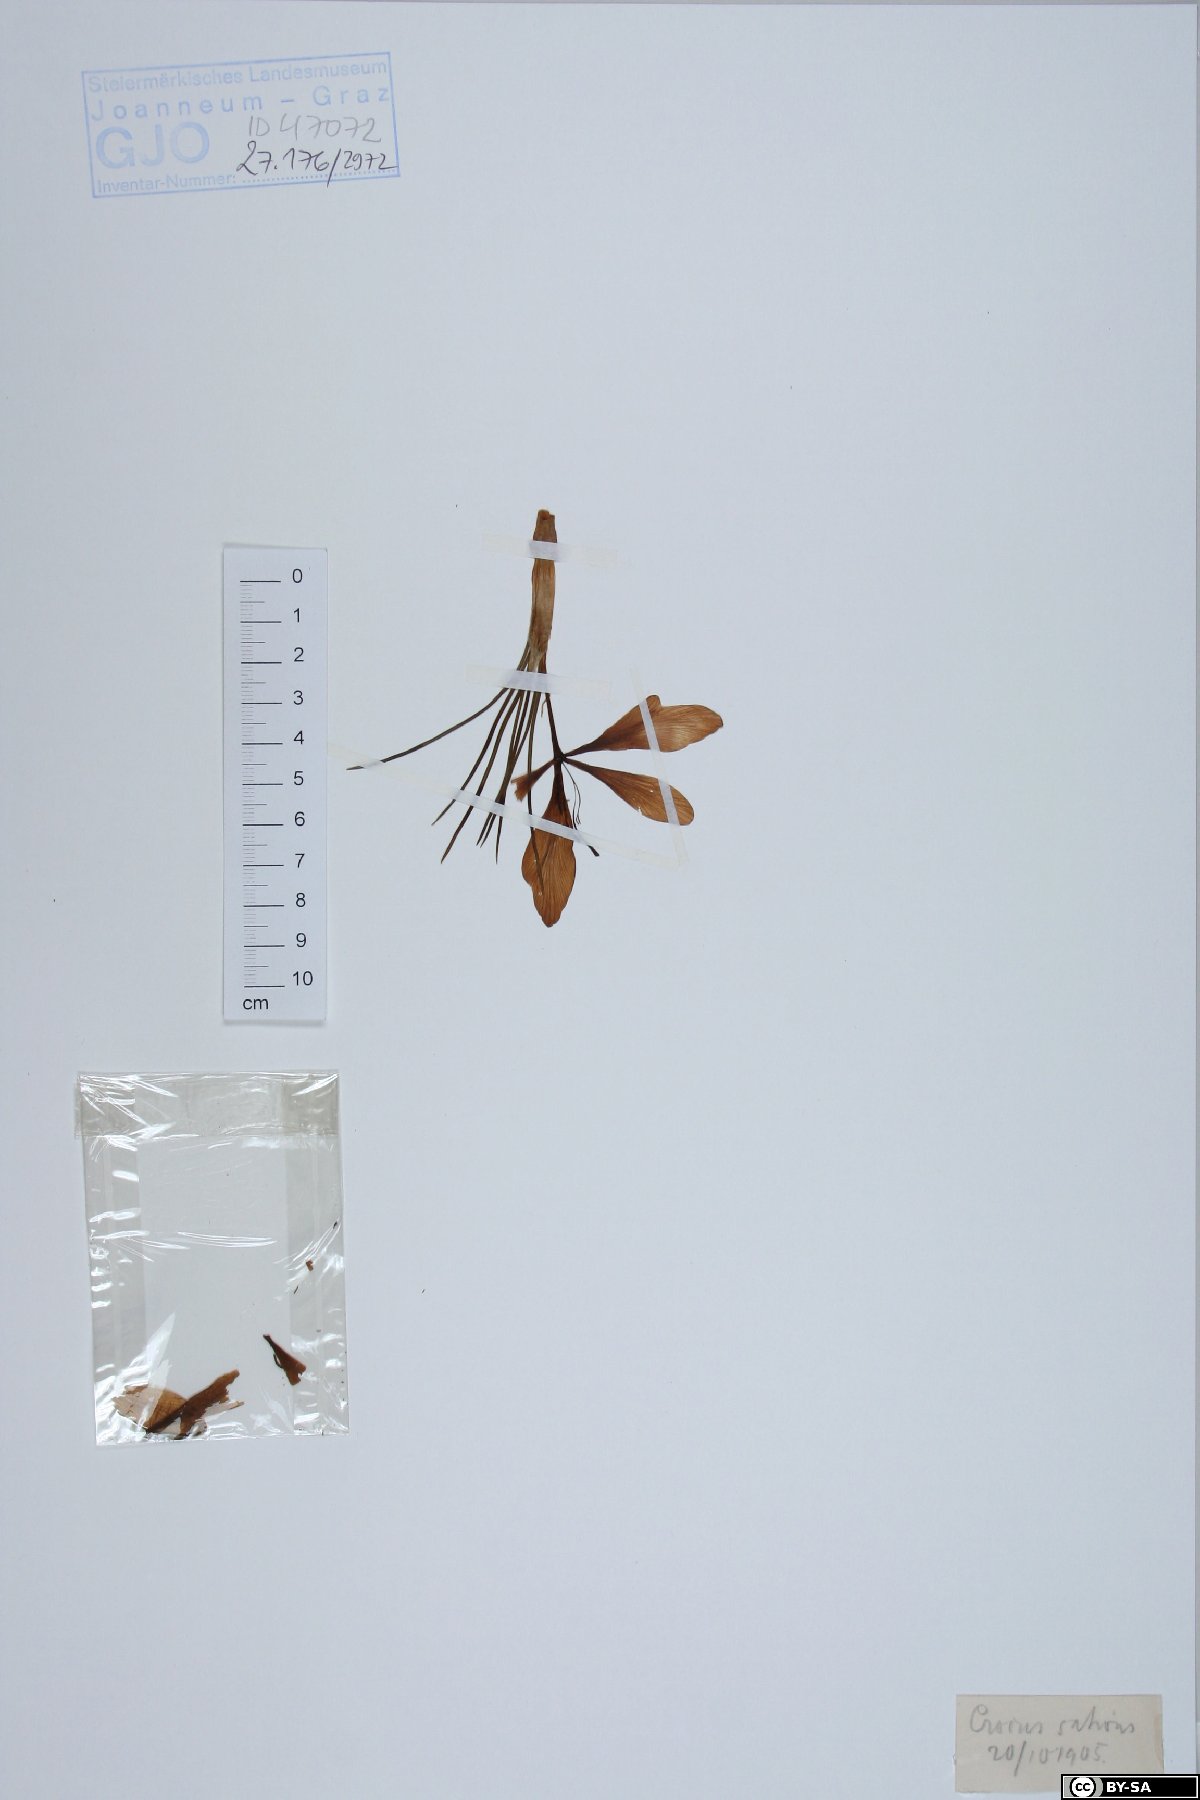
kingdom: Plantae
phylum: Tracheophyta
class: Liliopsida
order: Asparagales
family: Iridaceae
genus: Crocus
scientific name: Crocus sativus
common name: Saffron crocus
